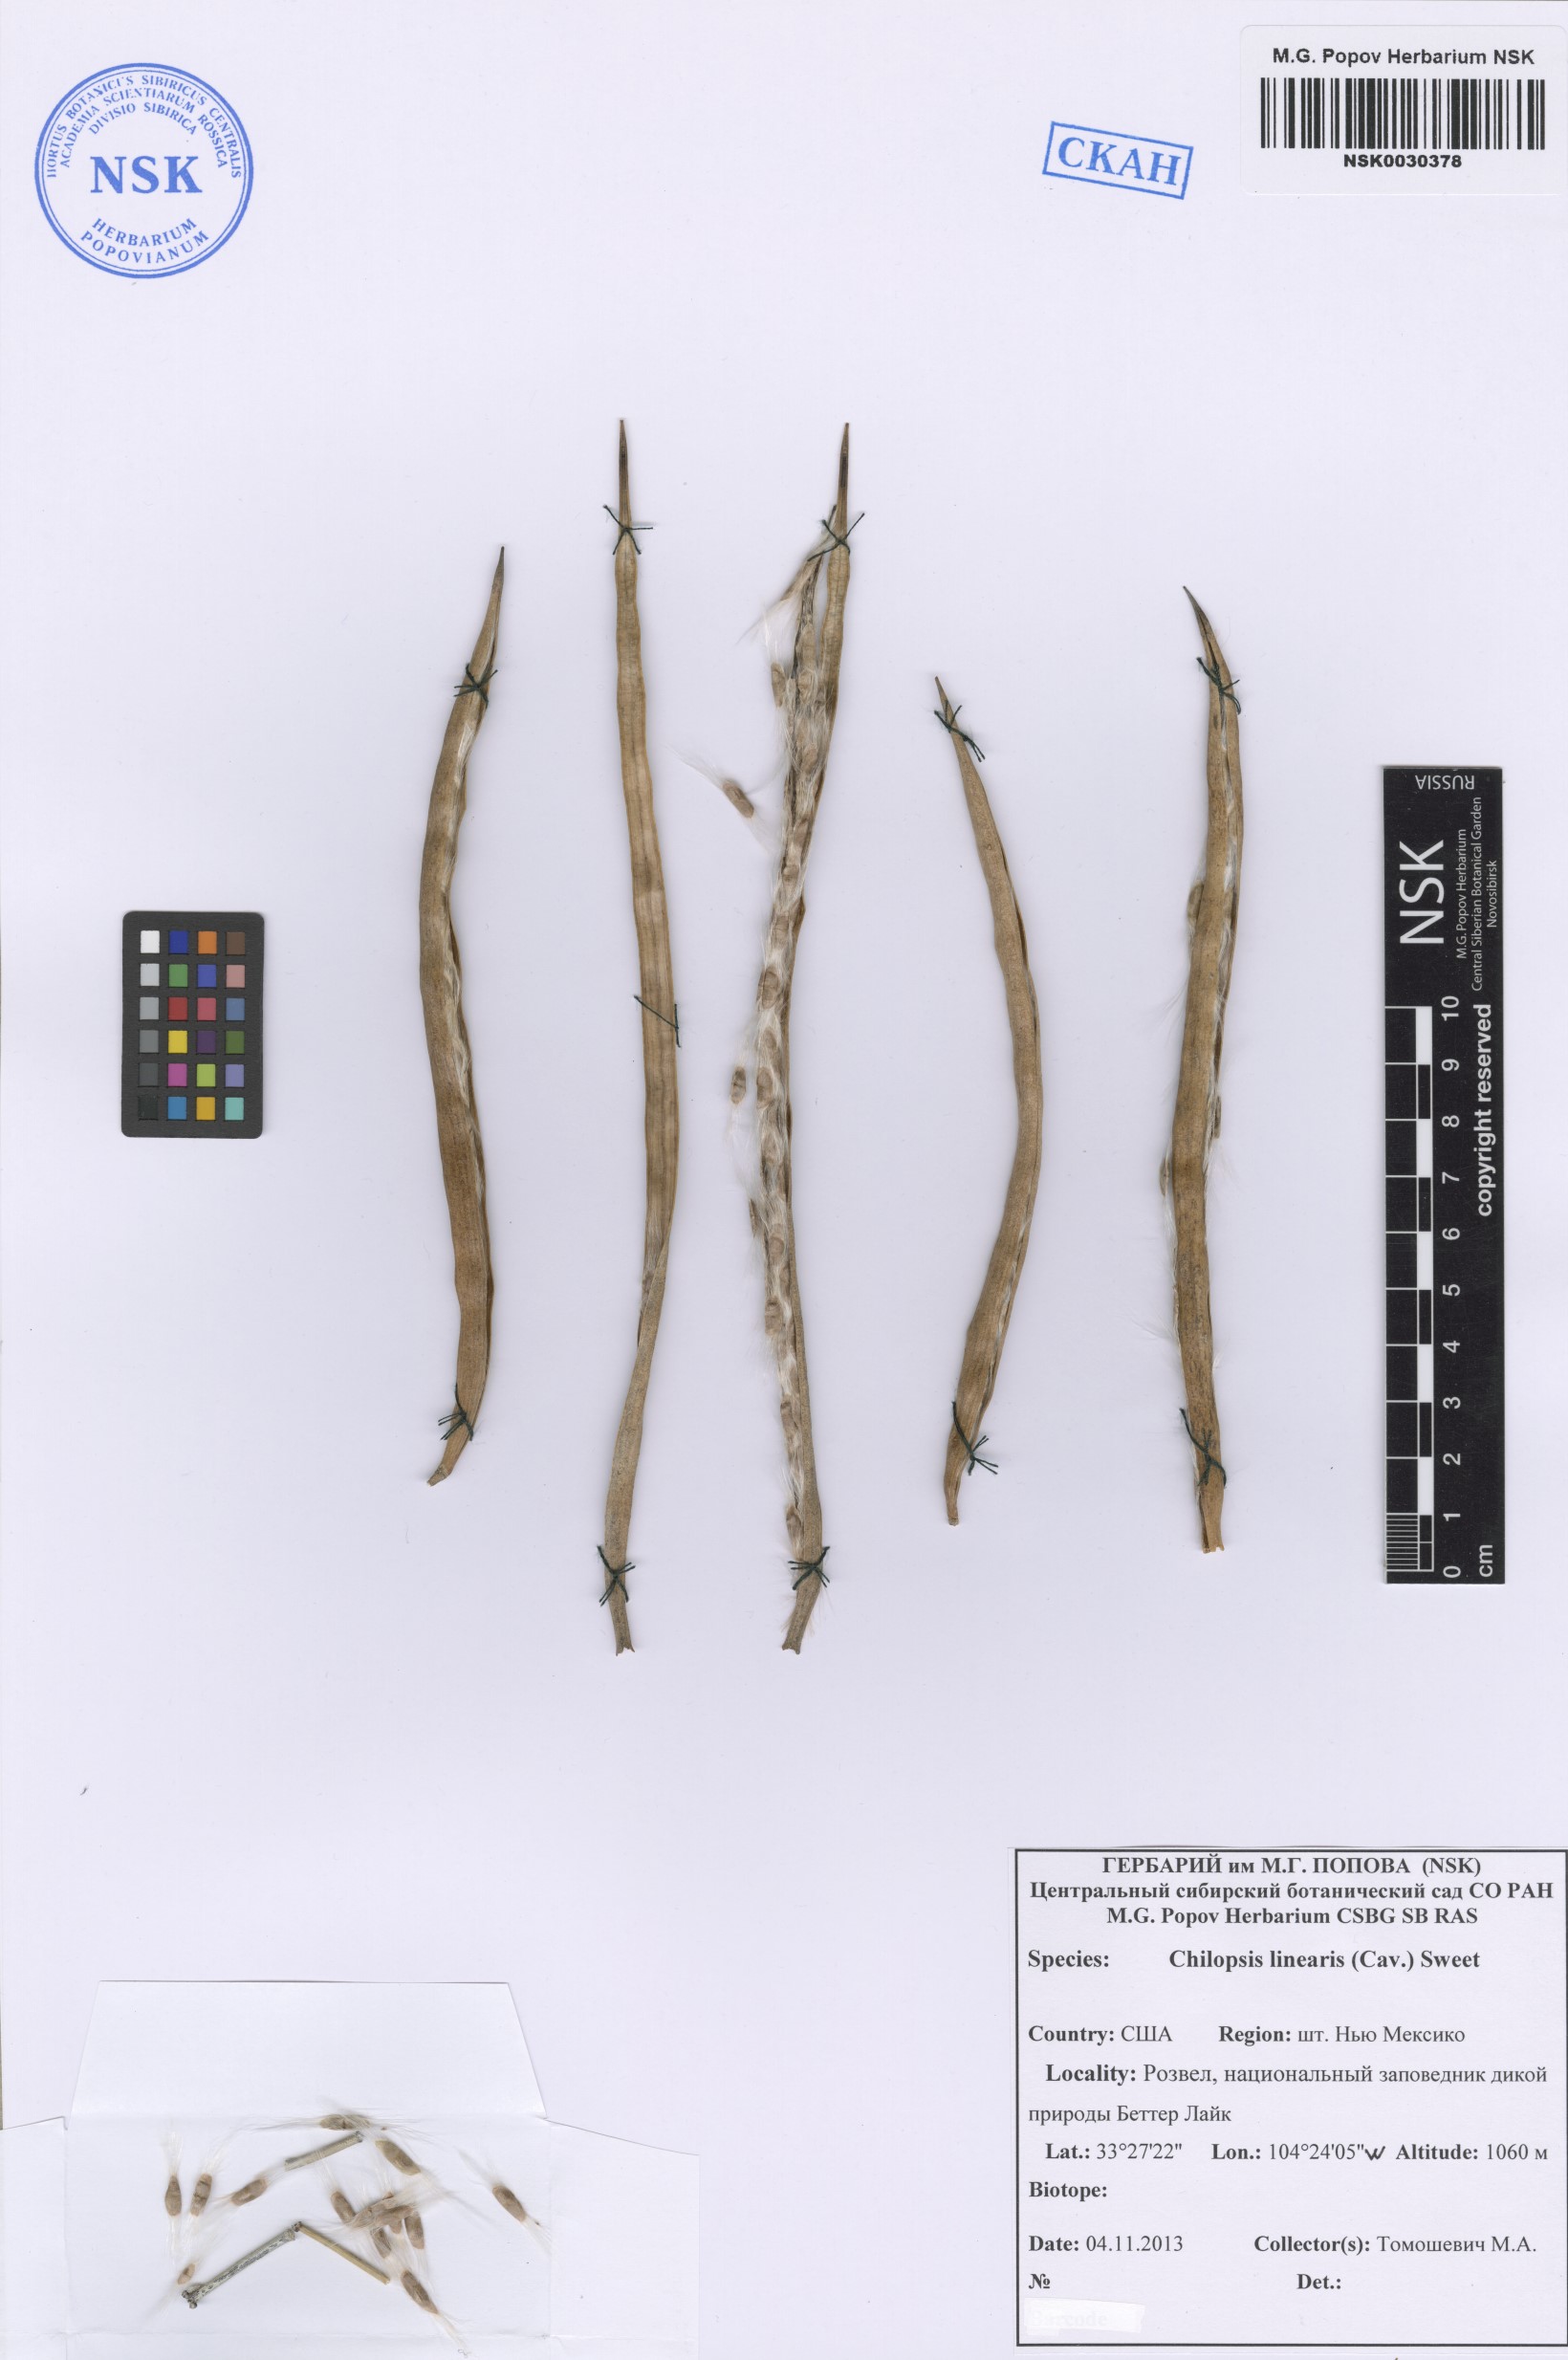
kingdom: Plantae
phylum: Tracheophyta
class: Magnoliopsida
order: Lamiales
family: Bignoniaceae
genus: Chilopsis
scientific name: Chilopsis linearis
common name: Desert-willow
